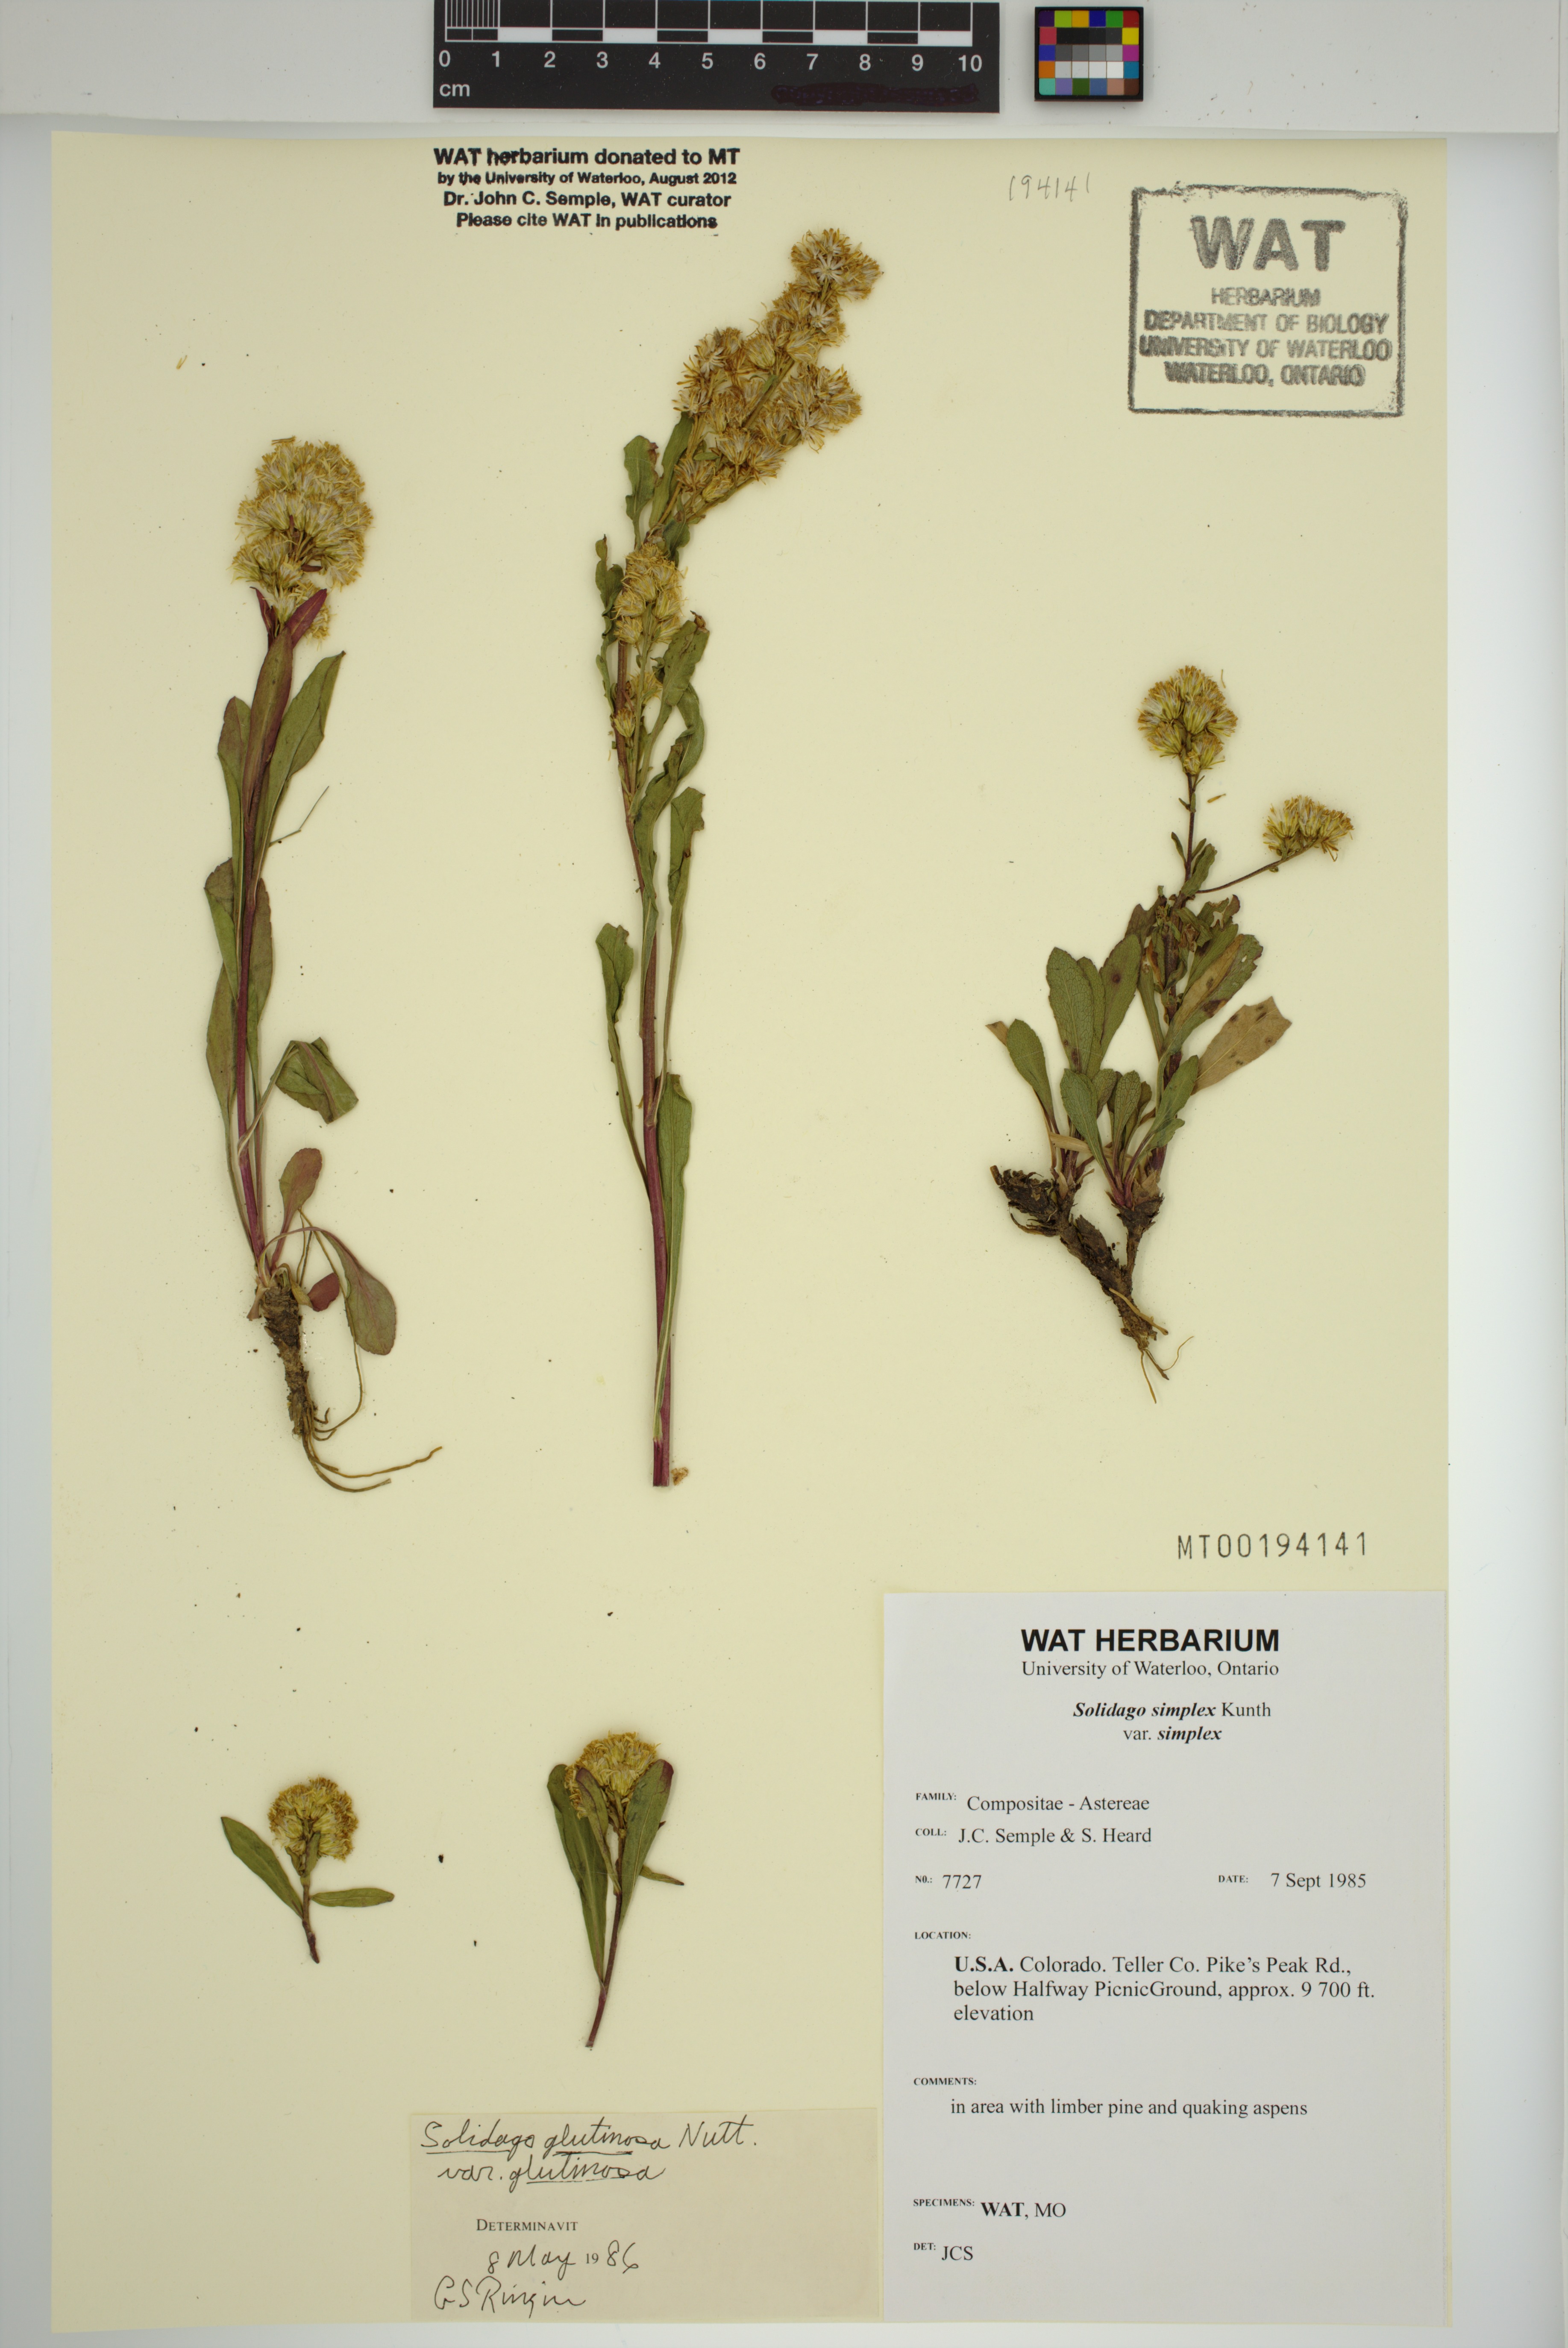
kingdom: Plantae
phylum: Tracheophyta
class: Magnoliopsida
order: Asterales
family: Asteraceae
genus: Solidago
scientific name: Solidago glutinosa
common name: Decumbent goldenrod
